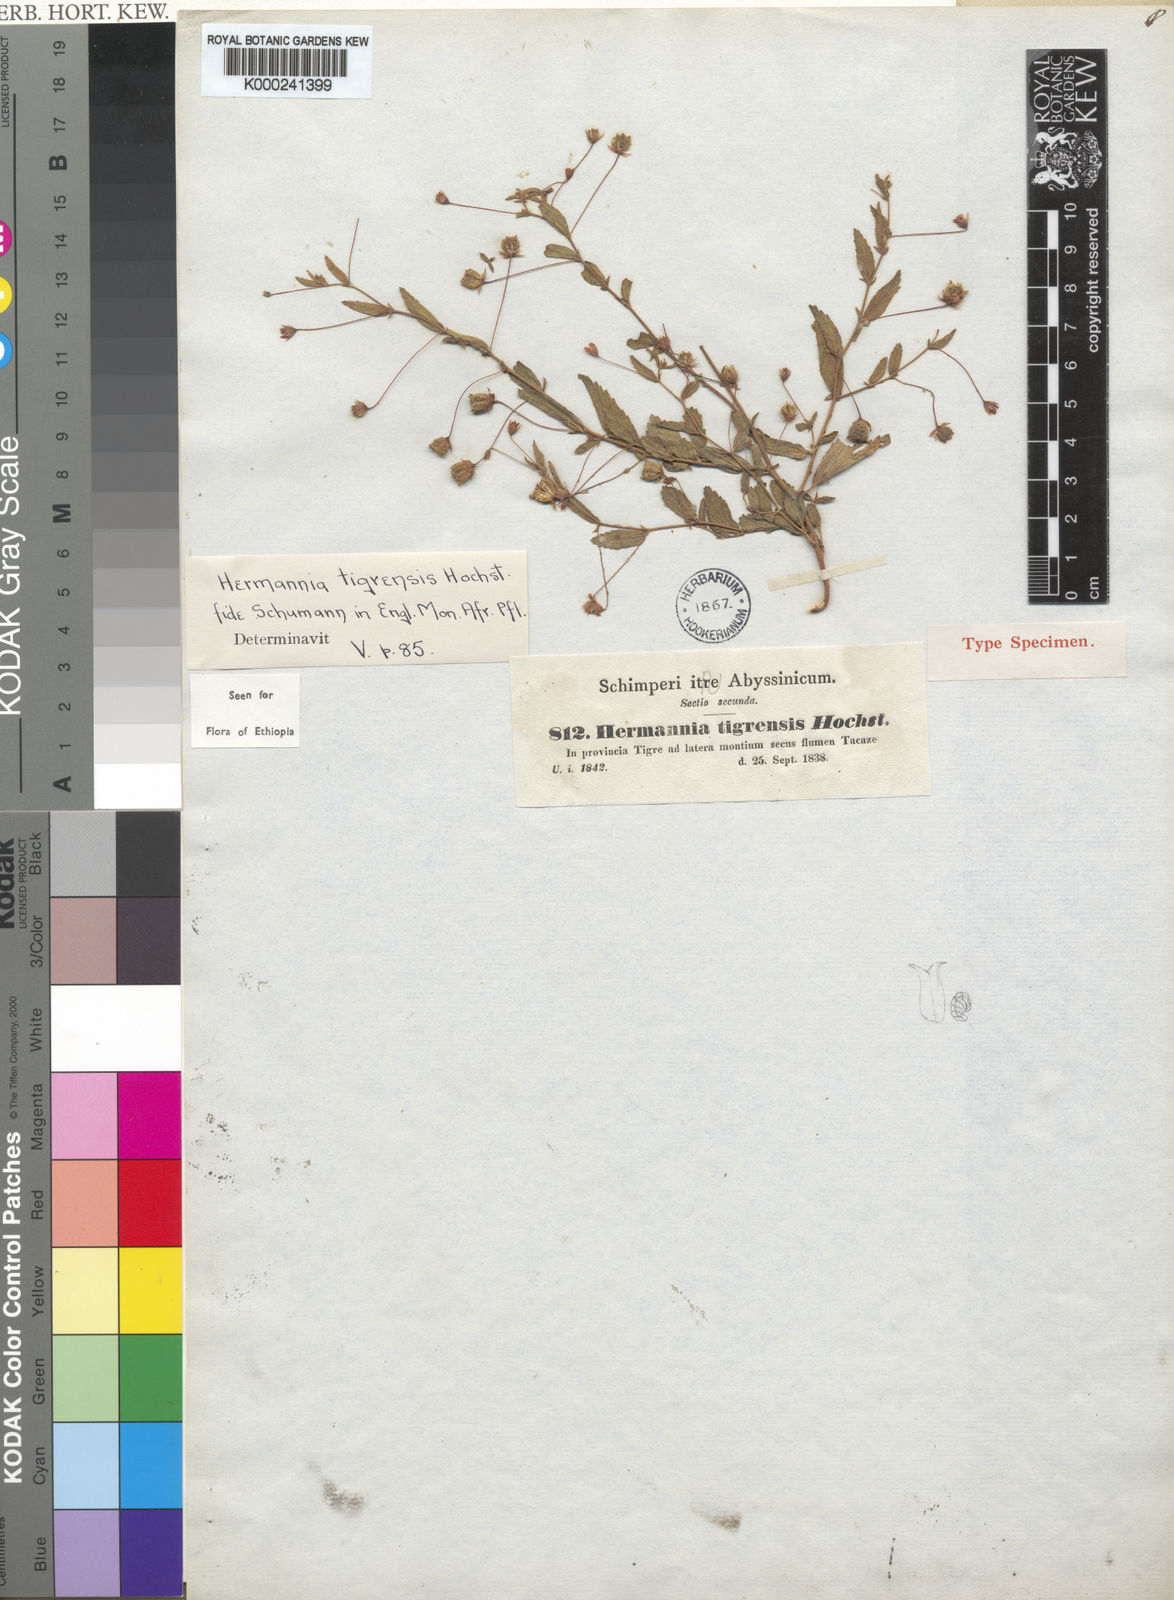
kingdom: Plantae
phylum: Tracheophyta
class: Magnoliopsida
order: Malvales
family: Malvaceae
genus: Hermannia
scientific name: Hermannia tigreensis
